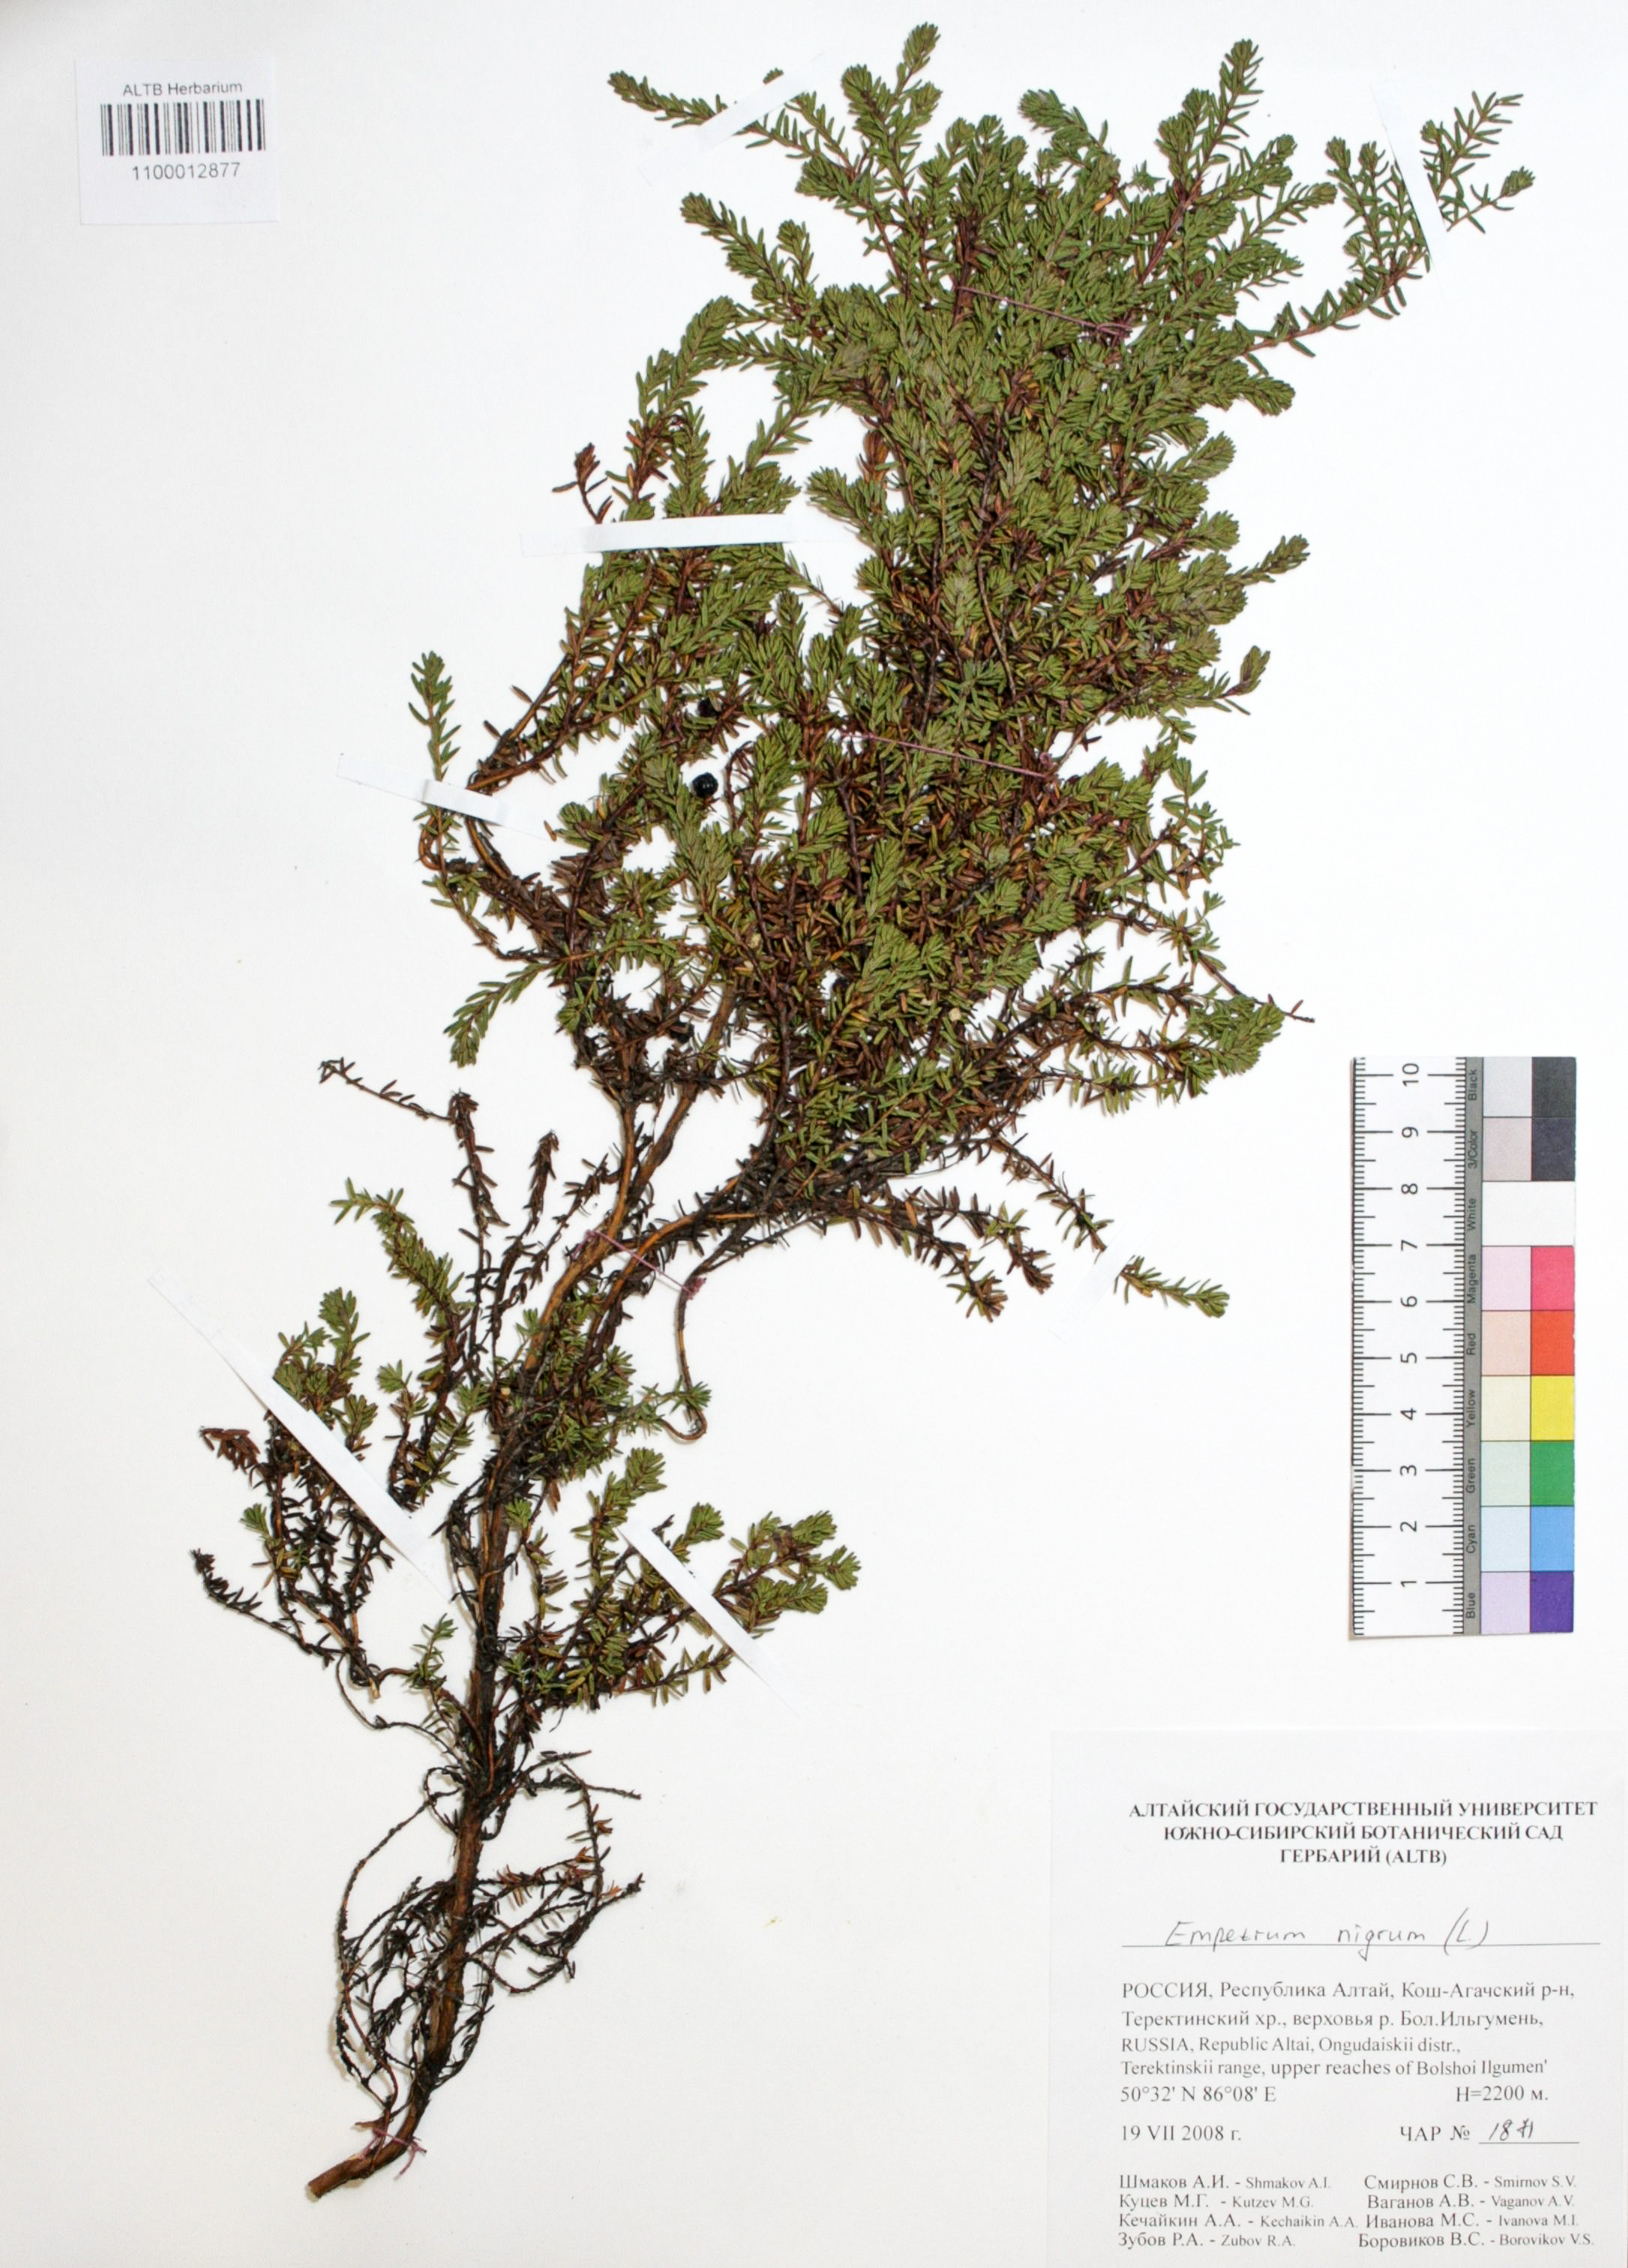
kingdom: Plantae
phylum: Tracheophyta
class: Magnoliopsida
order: Ericales
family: Ericaceae
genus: Empetrum
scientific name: Empetrum nigrum
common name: Black crowberry
